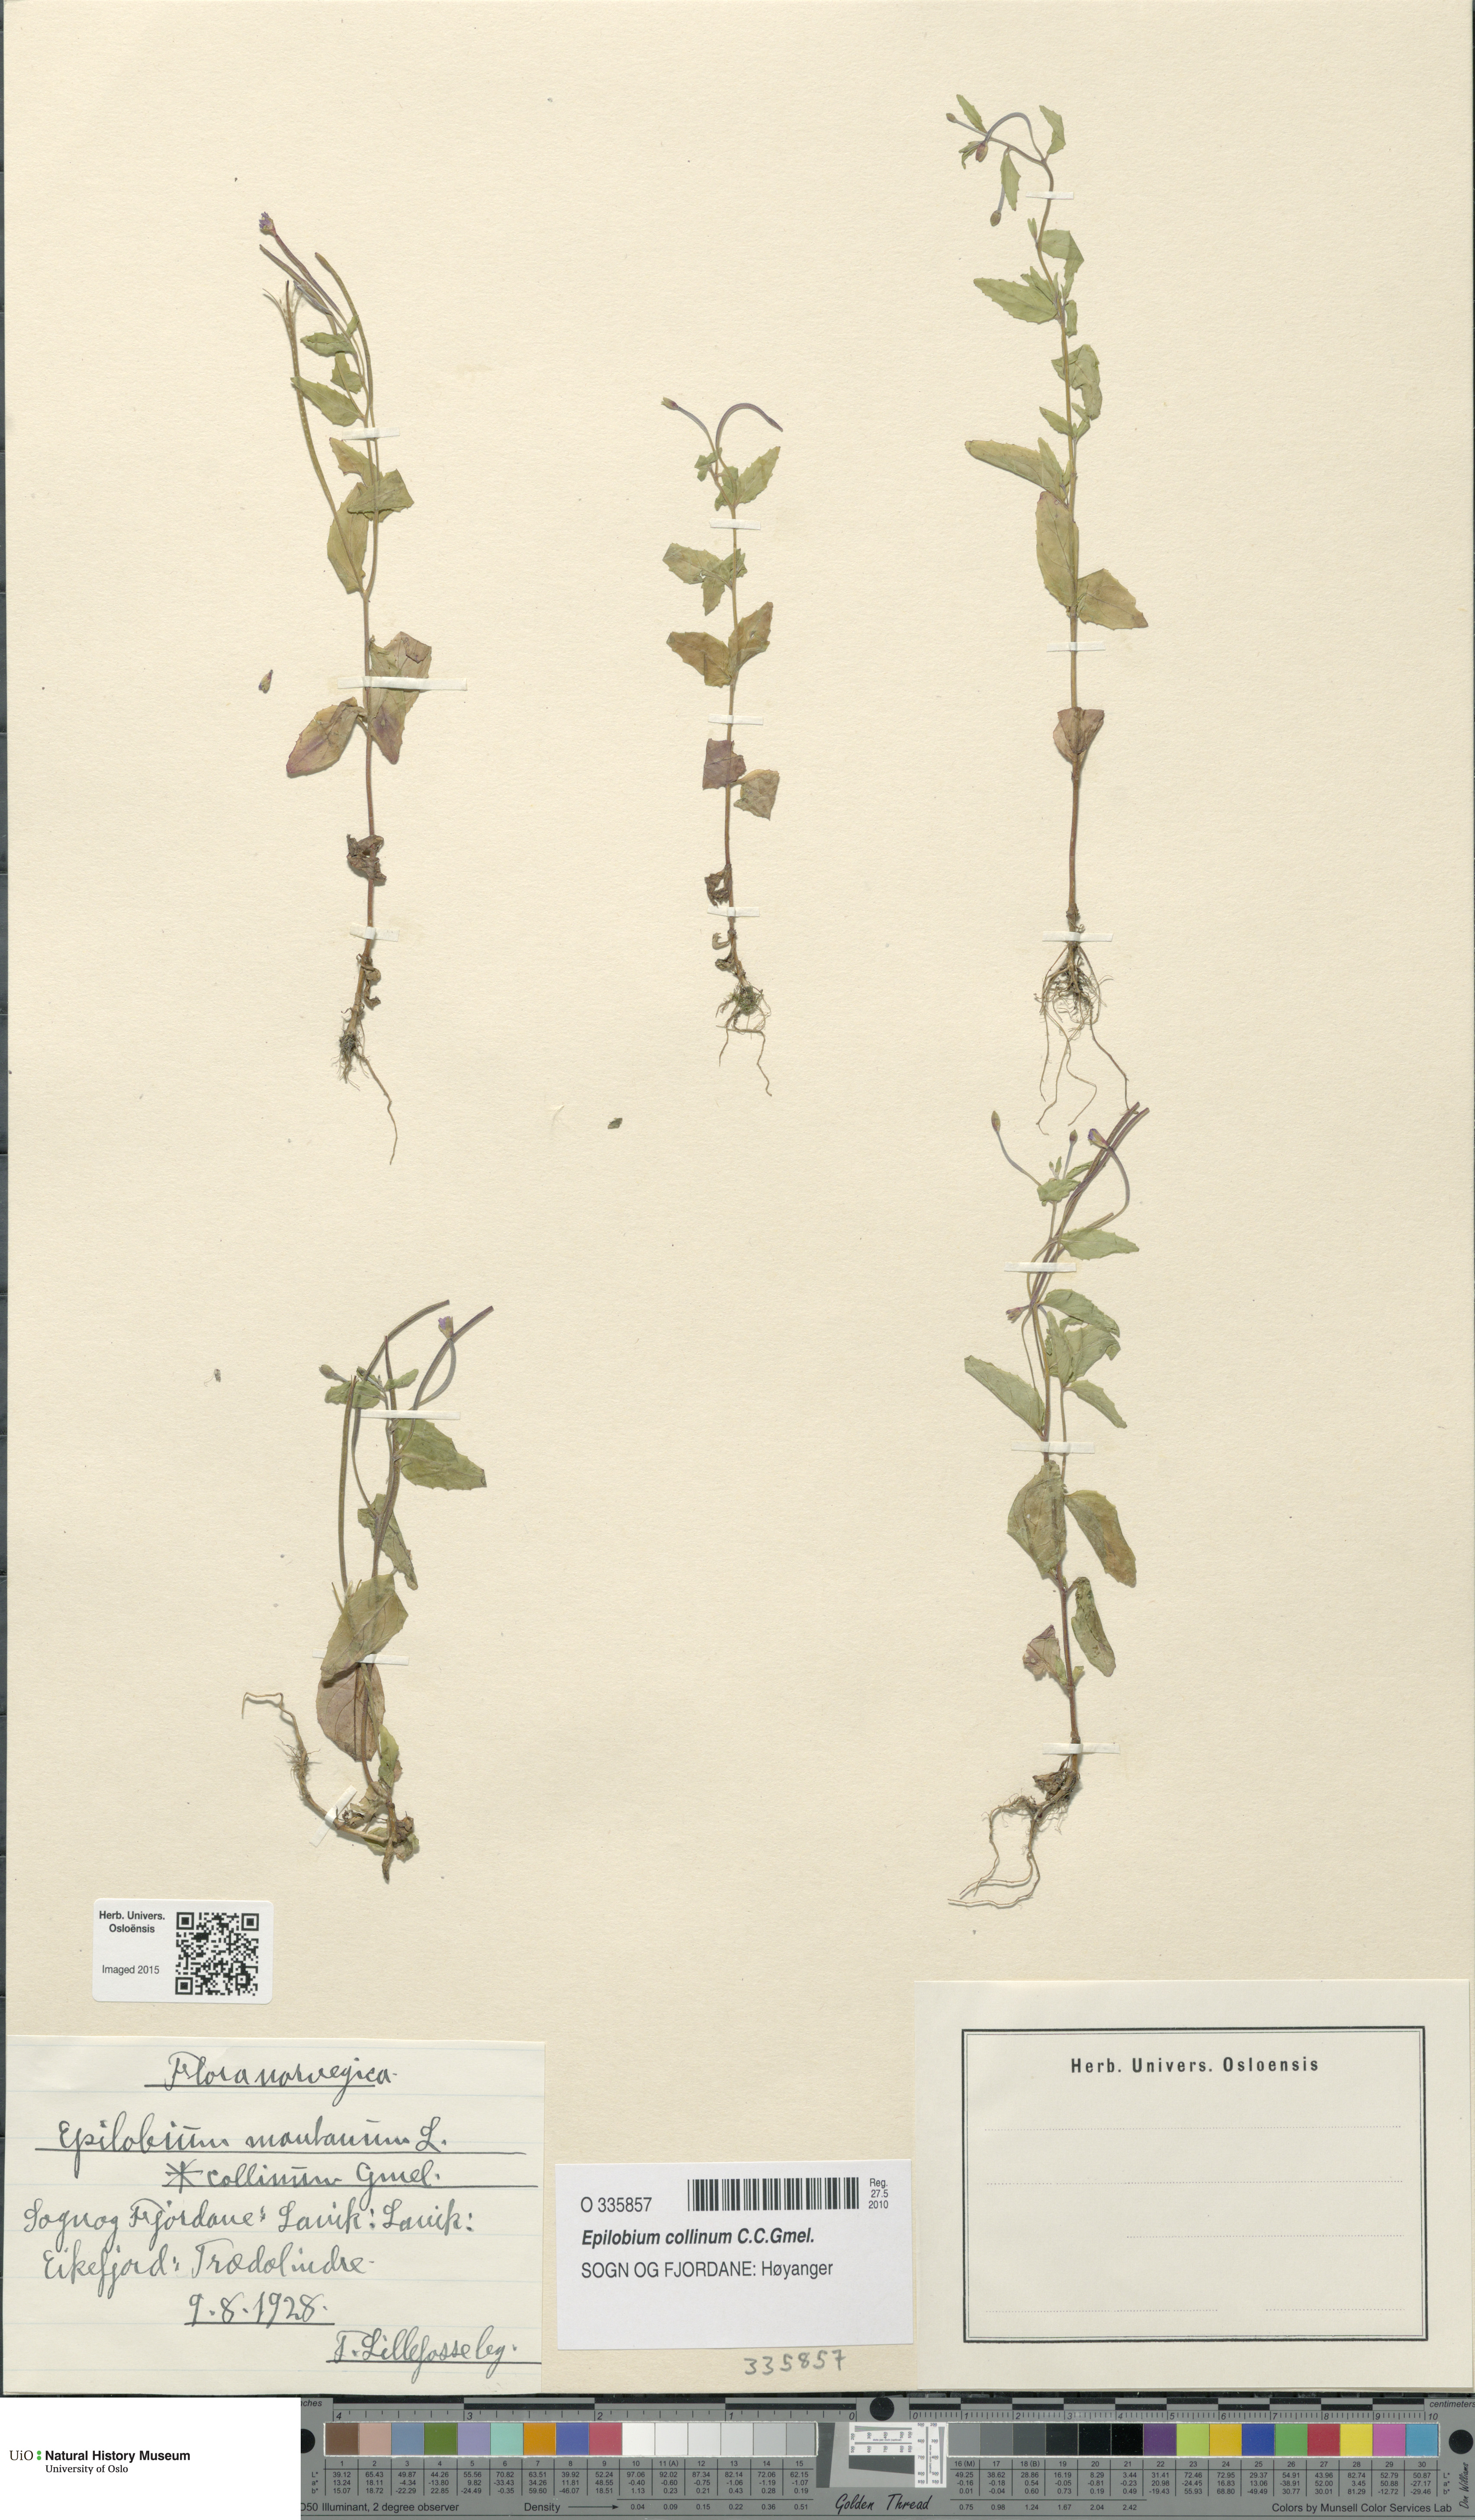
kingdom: Plantae
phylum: Tracheophyta
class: Magnoliopsida
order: Myrtales
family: Onagraceae
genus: Epilobium
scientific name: Epilobium collinum
